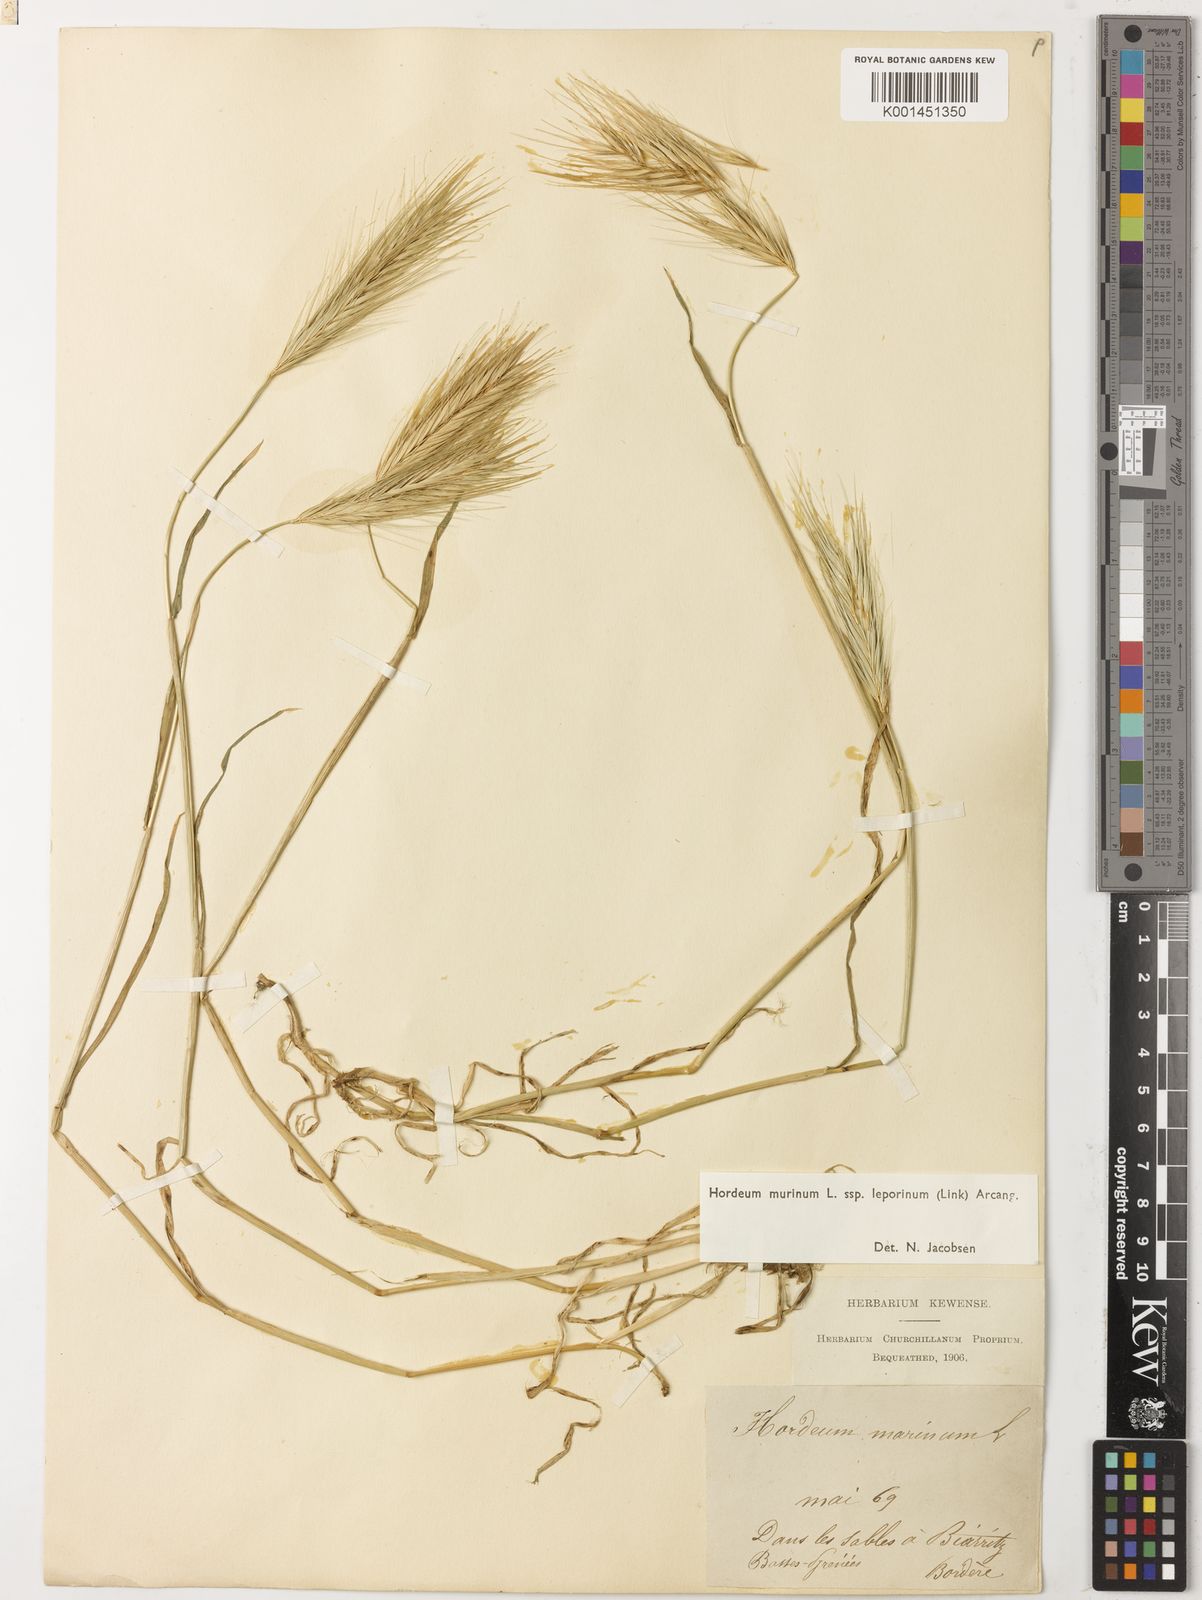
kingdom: Plantae
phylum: Tracheophyta
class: Liliopsida
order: Poales
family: Poaceae
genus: Hordeum
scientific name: Hordeum murinum
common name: Wall barley
